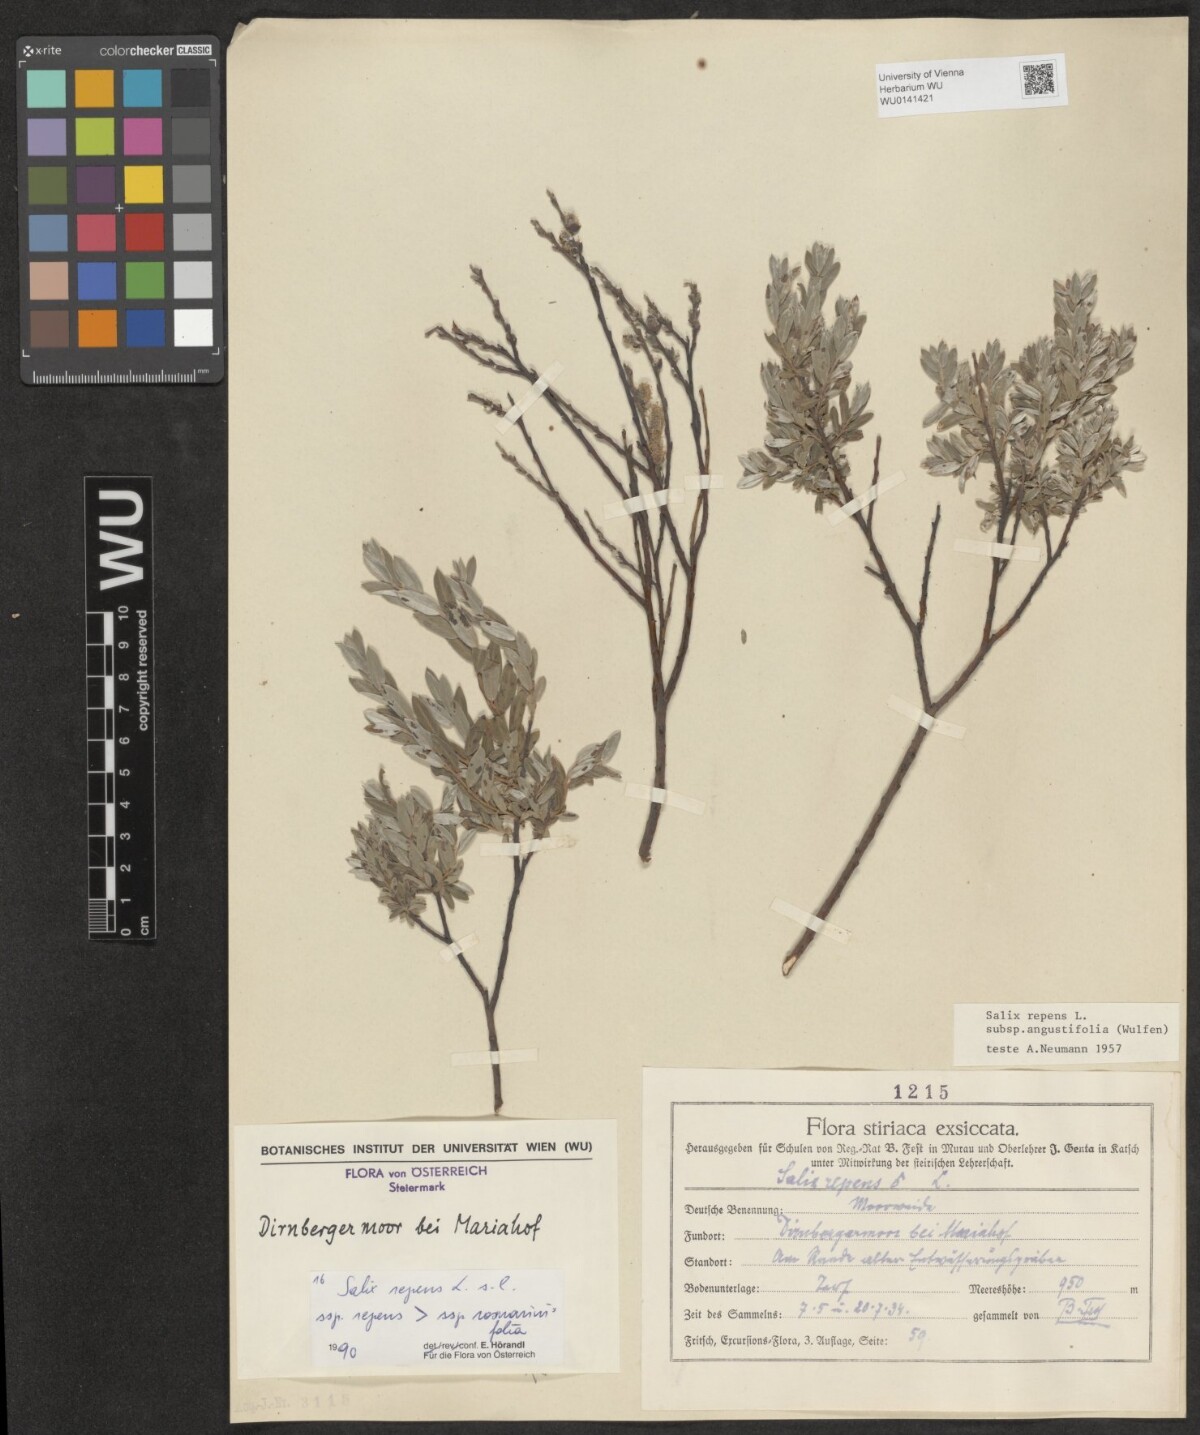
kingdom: Plantae
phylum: Tracheophyta
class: Magnoliopsida
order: Malpighiales
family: Salicaceae
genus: Salix
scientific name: Salix repens
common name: Creeping willow
